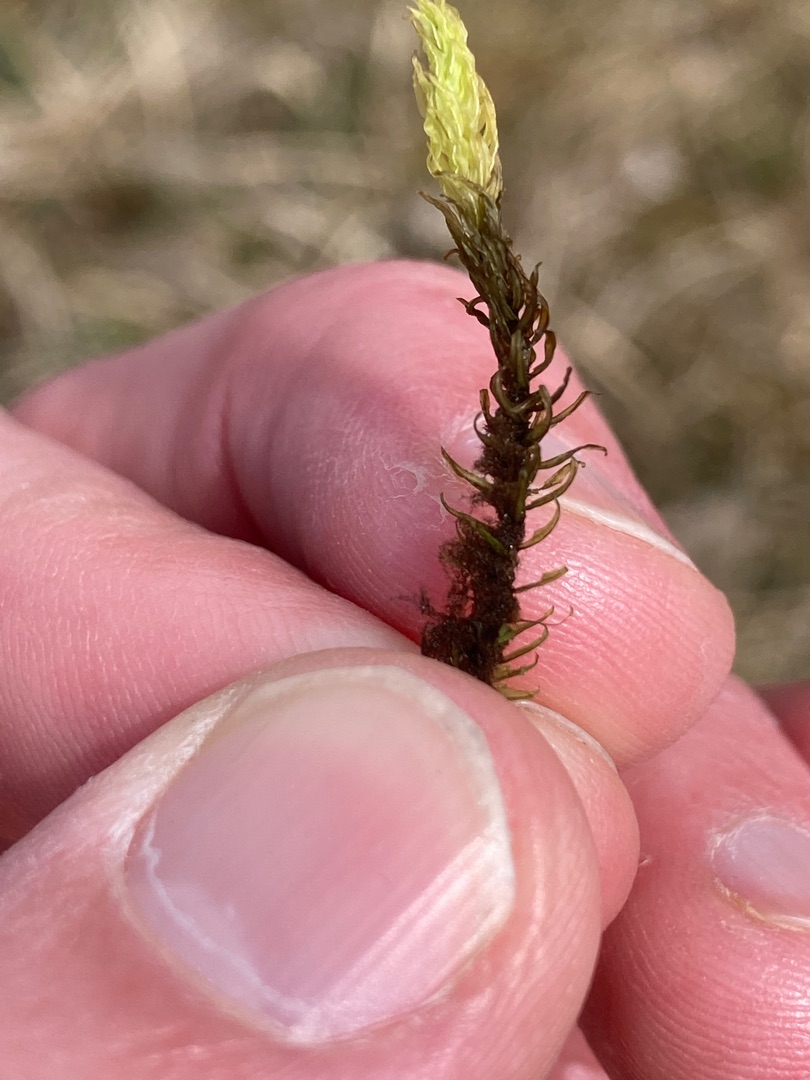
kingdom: Plantae
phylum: Bryophyta
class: Bryopsida
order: Aulacomniales
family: Aulacomniaceae
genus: Aulacomnium
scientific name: Aulacomnium palustre
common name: Almindelig filtmos
